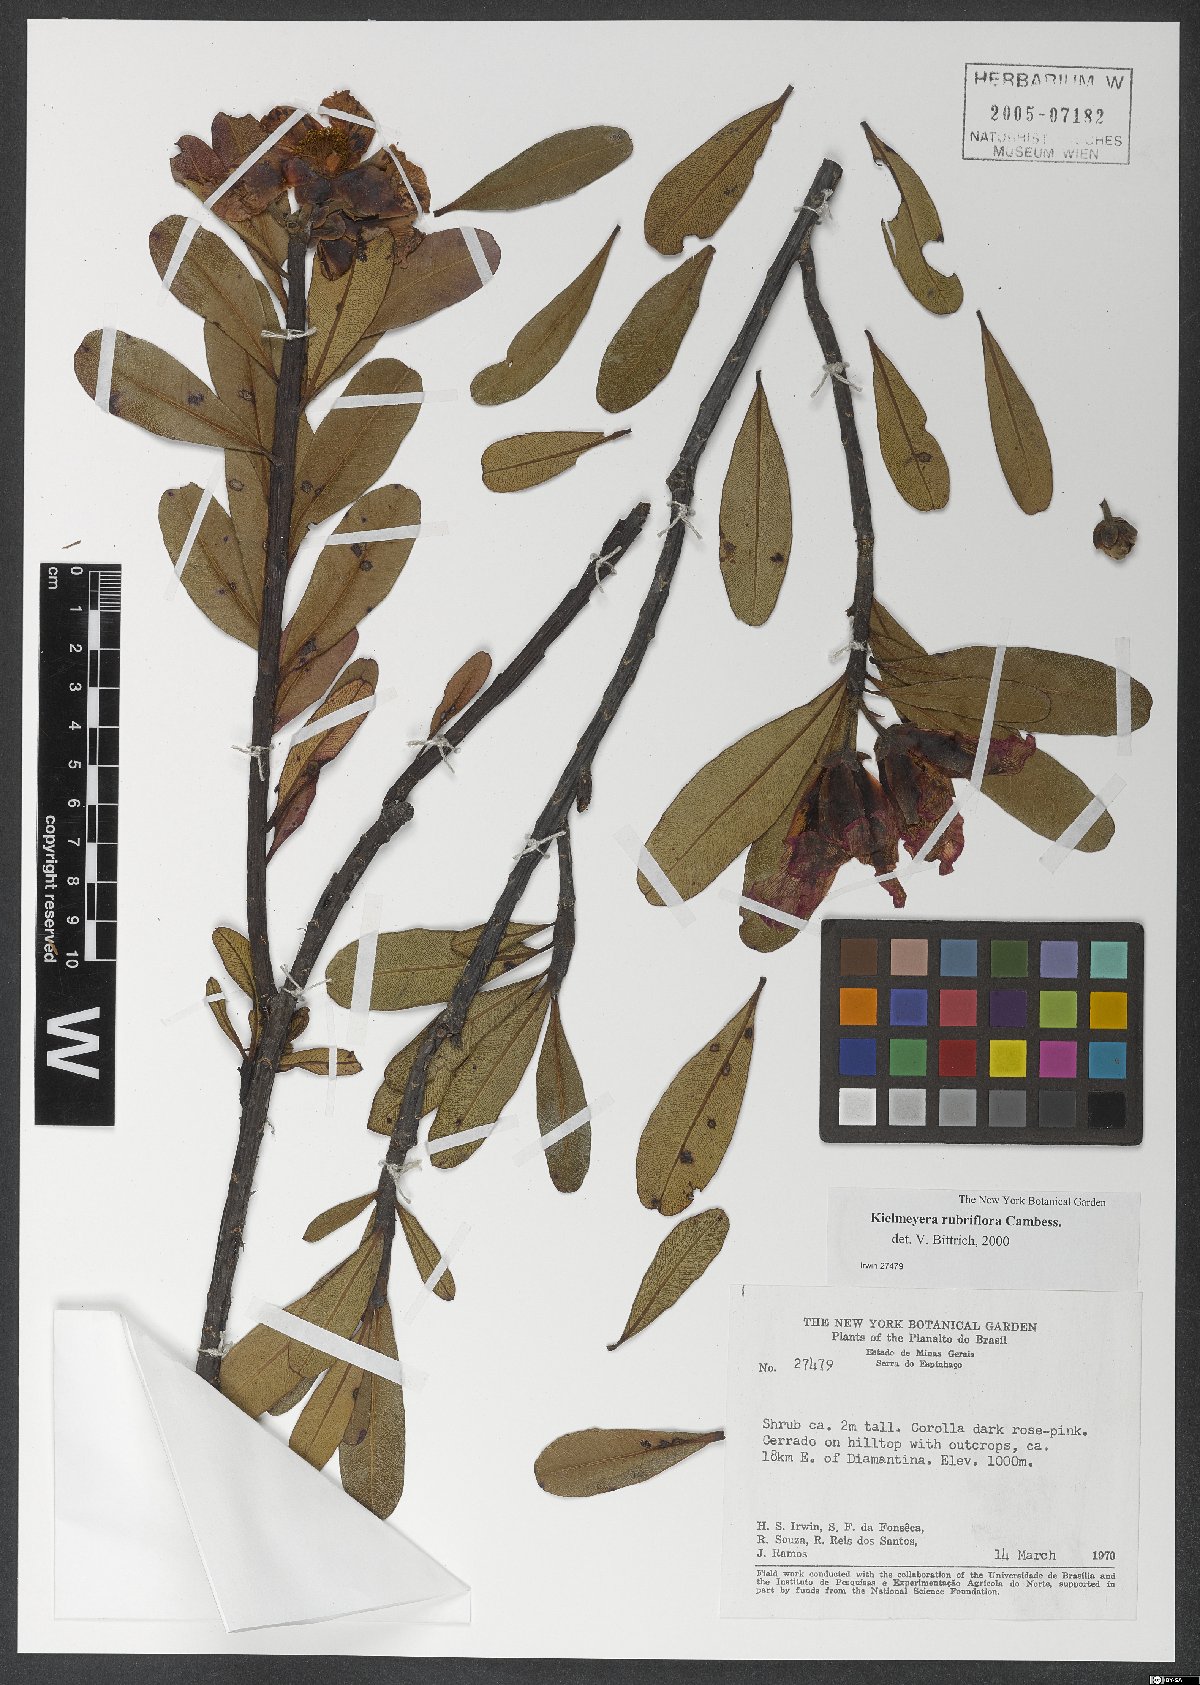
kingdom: Plantae
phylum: Tracheophyta
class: Magnoliopsida
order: Malpighiales
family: Calophyllaceae
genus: Kielmeyera
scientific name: Kielmeyera rubriflora
